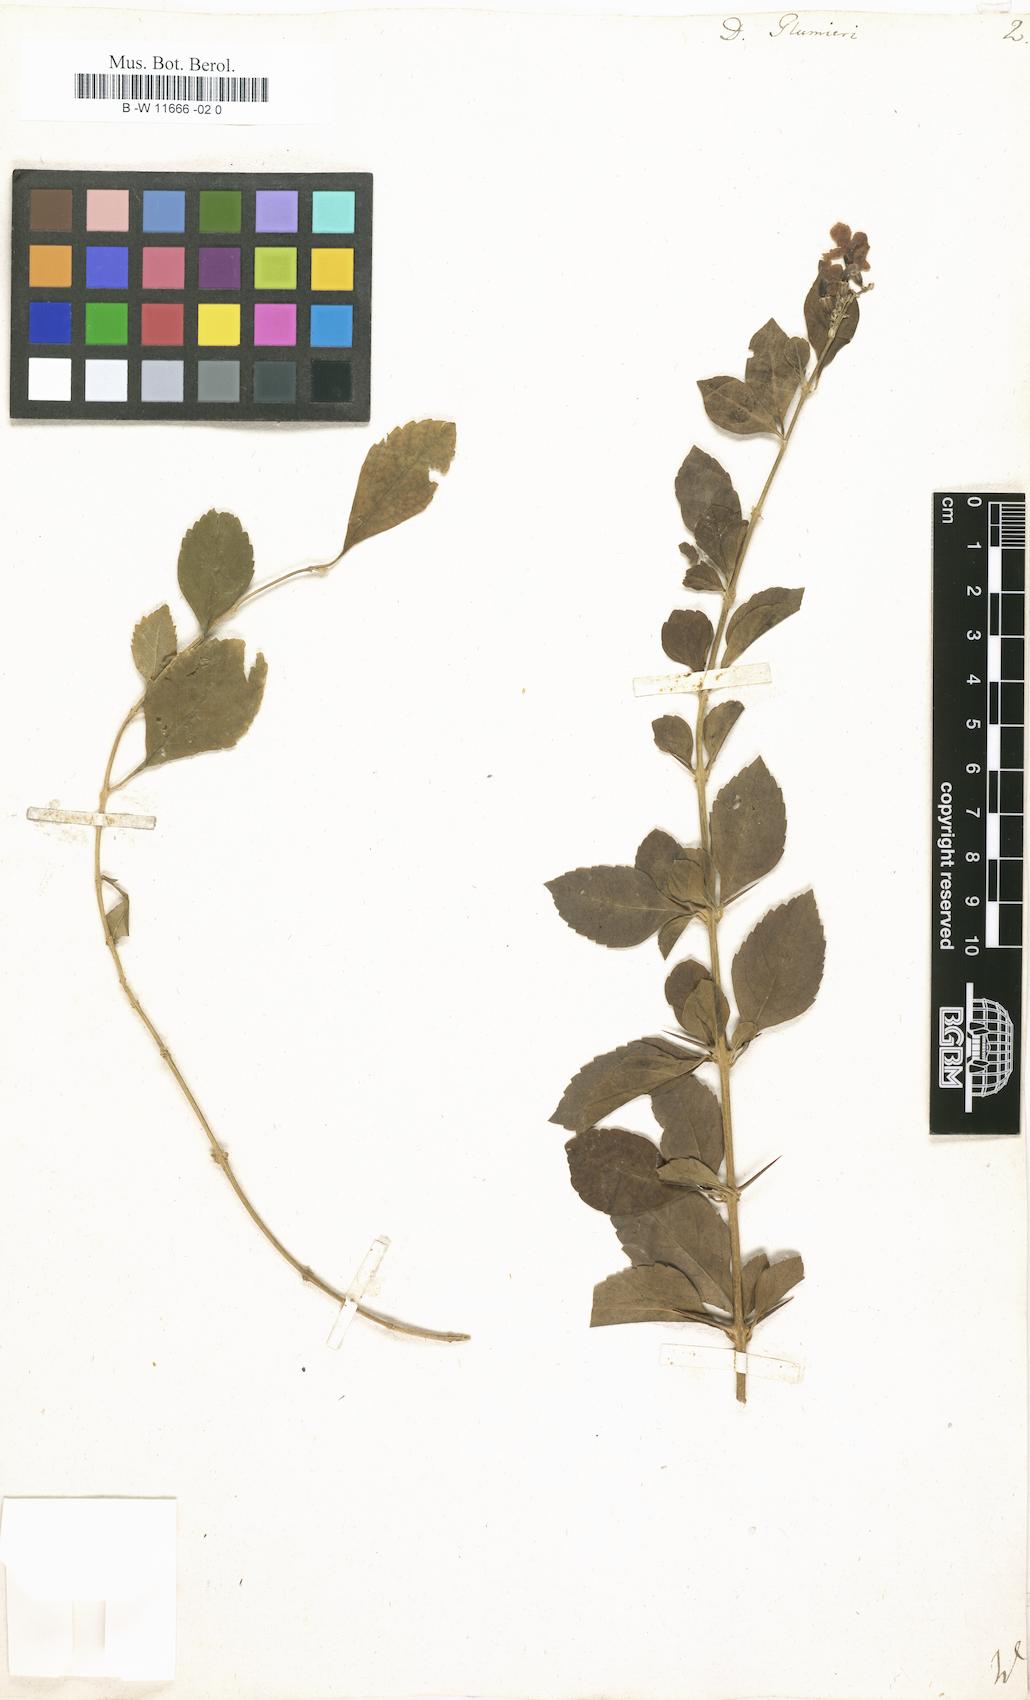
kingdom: Plantae
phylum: Tracheophyta
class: Magnoliopsida
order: Lamiales
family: Verbenaceae
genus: Duranta
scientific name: Duranta erecta
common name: Golden dewdrops
